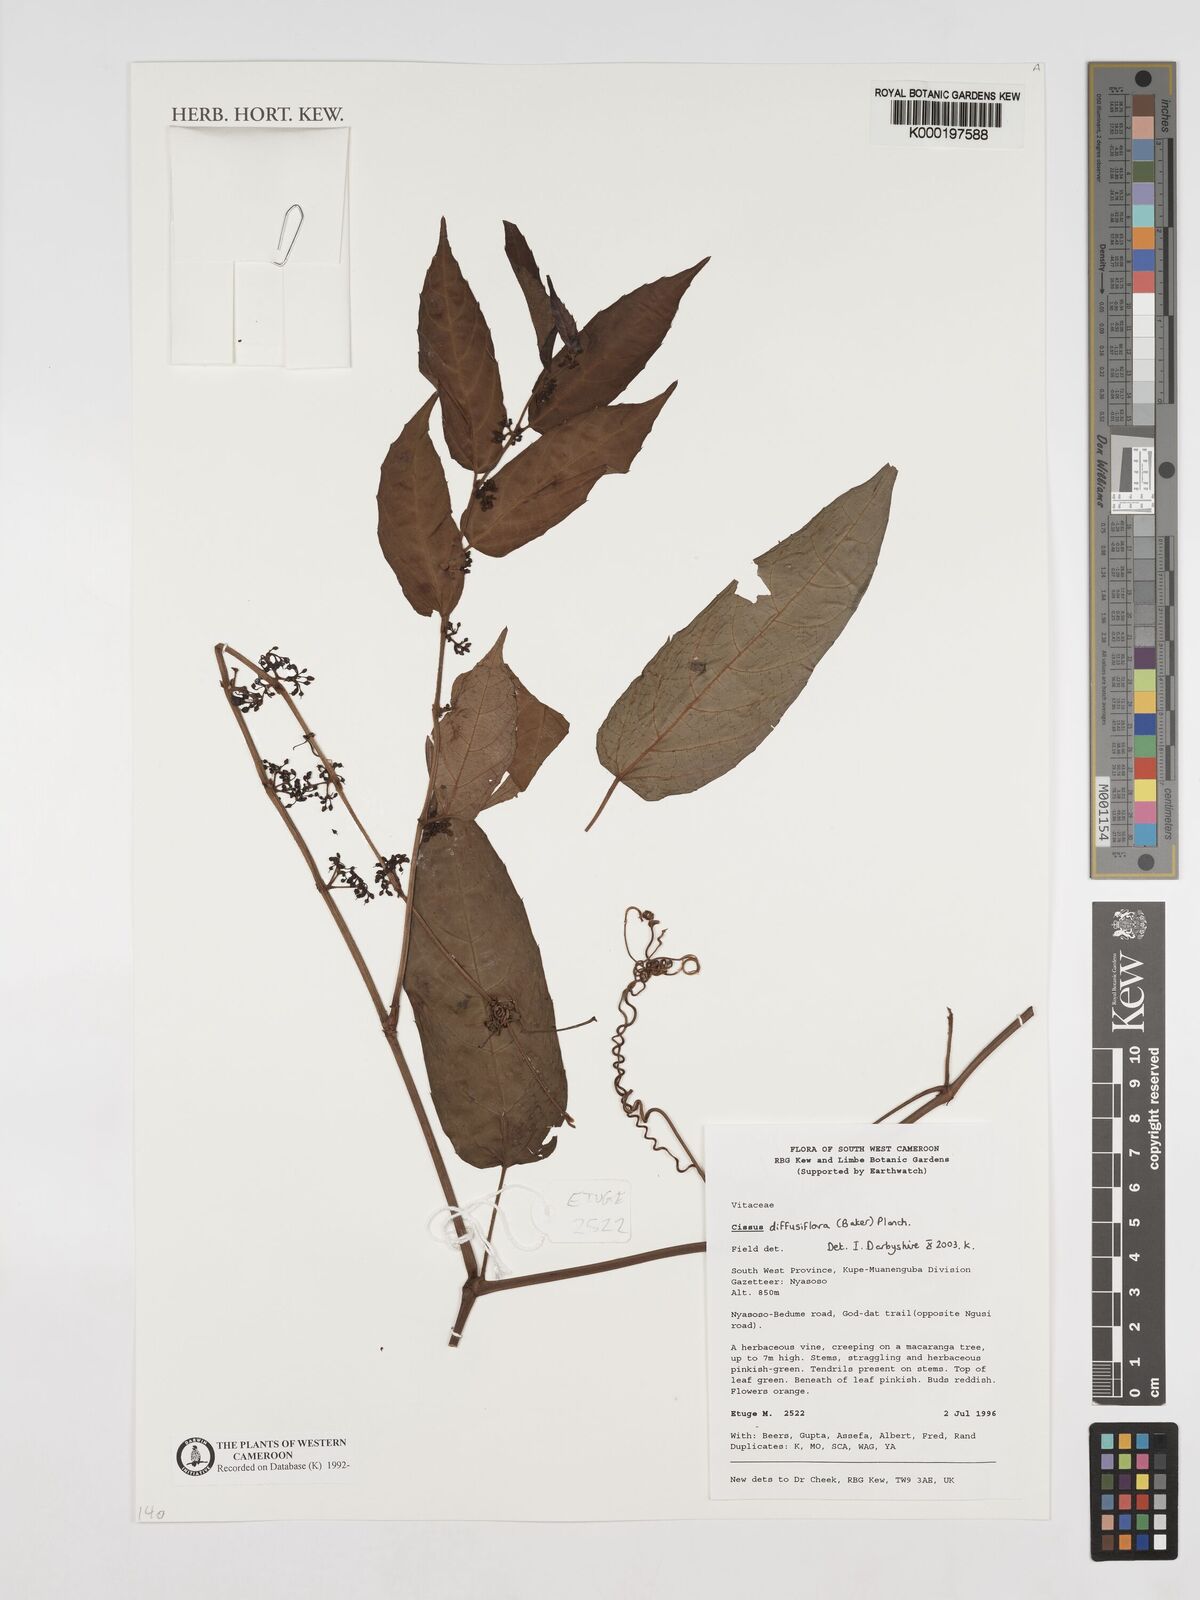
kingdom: Plantae
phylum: Tracheophyta
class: Magnoliopsida
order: Vitales
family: Vitaceae
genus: Cissus
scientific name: Cissus diffusiflora
